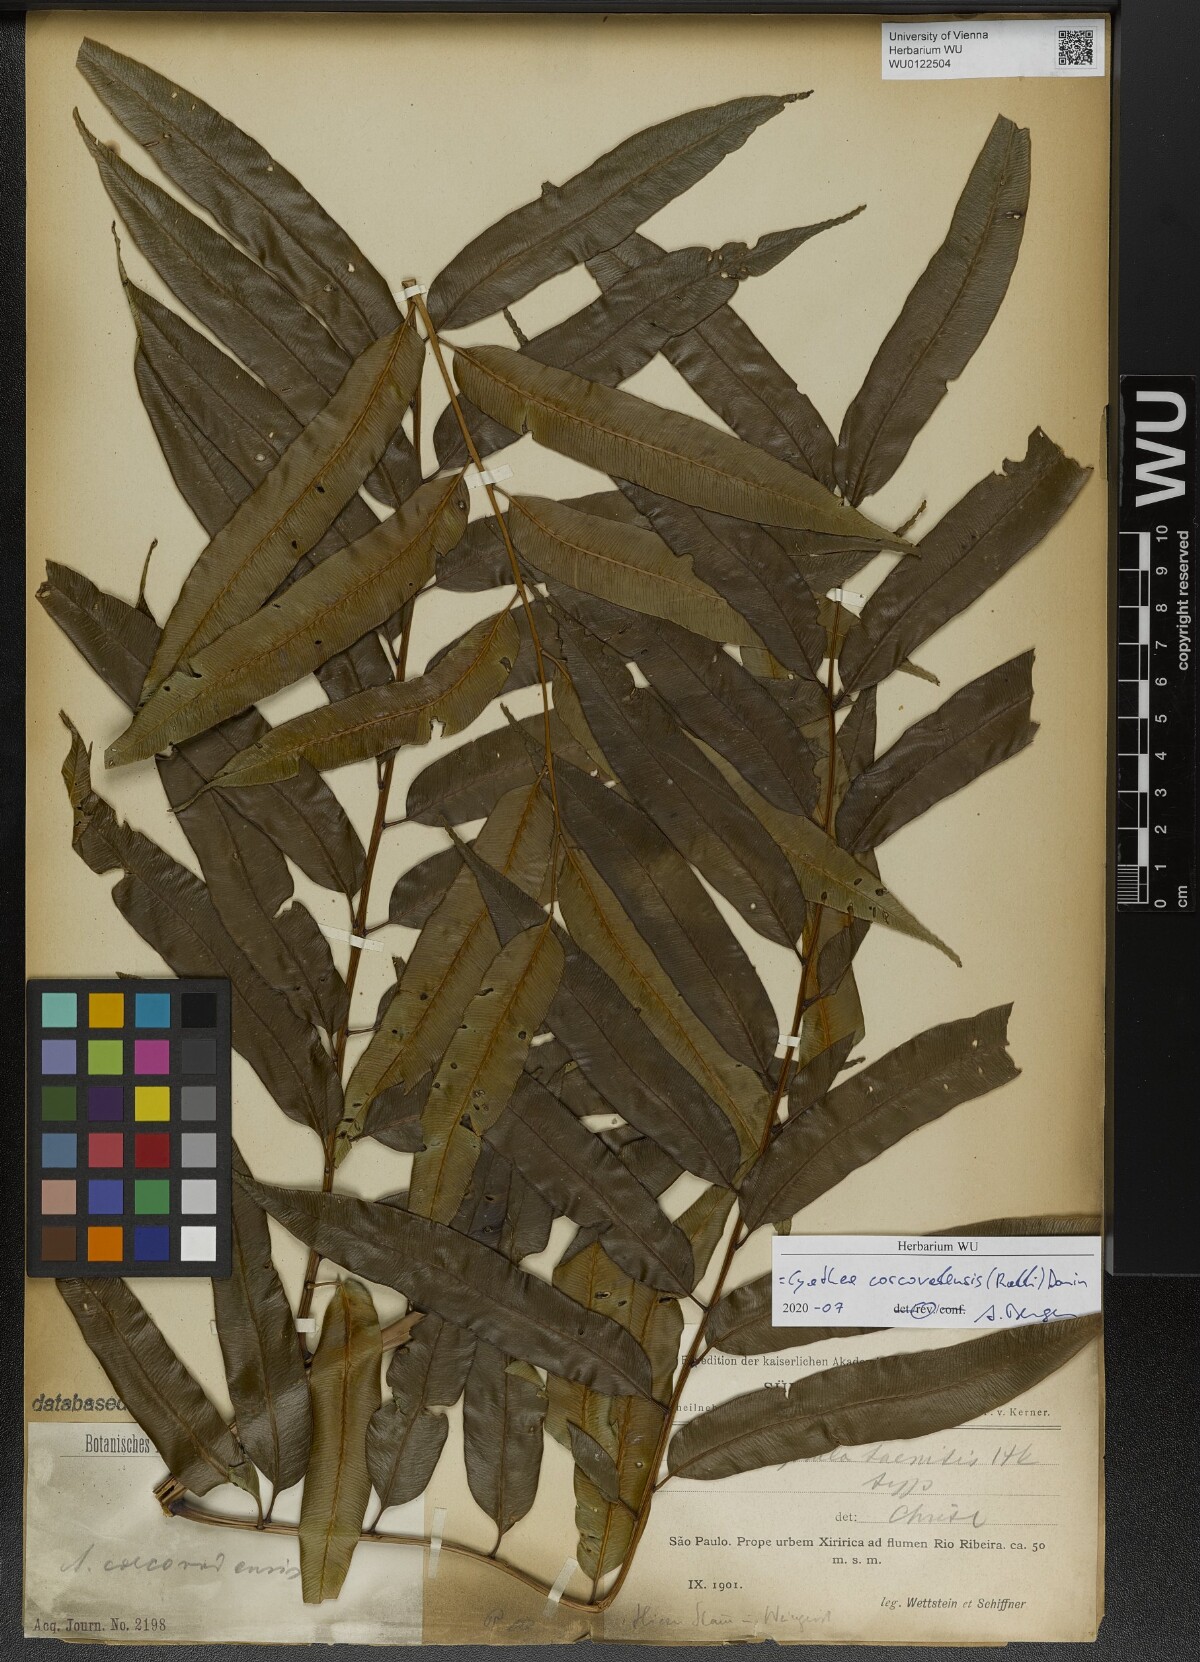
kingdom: Plantae
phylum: Tracheophyta
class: Polypodiopsida
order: Cyatheales
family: Cyatheaceae
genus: Cyathea
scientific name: Cyathea corcovadensis
